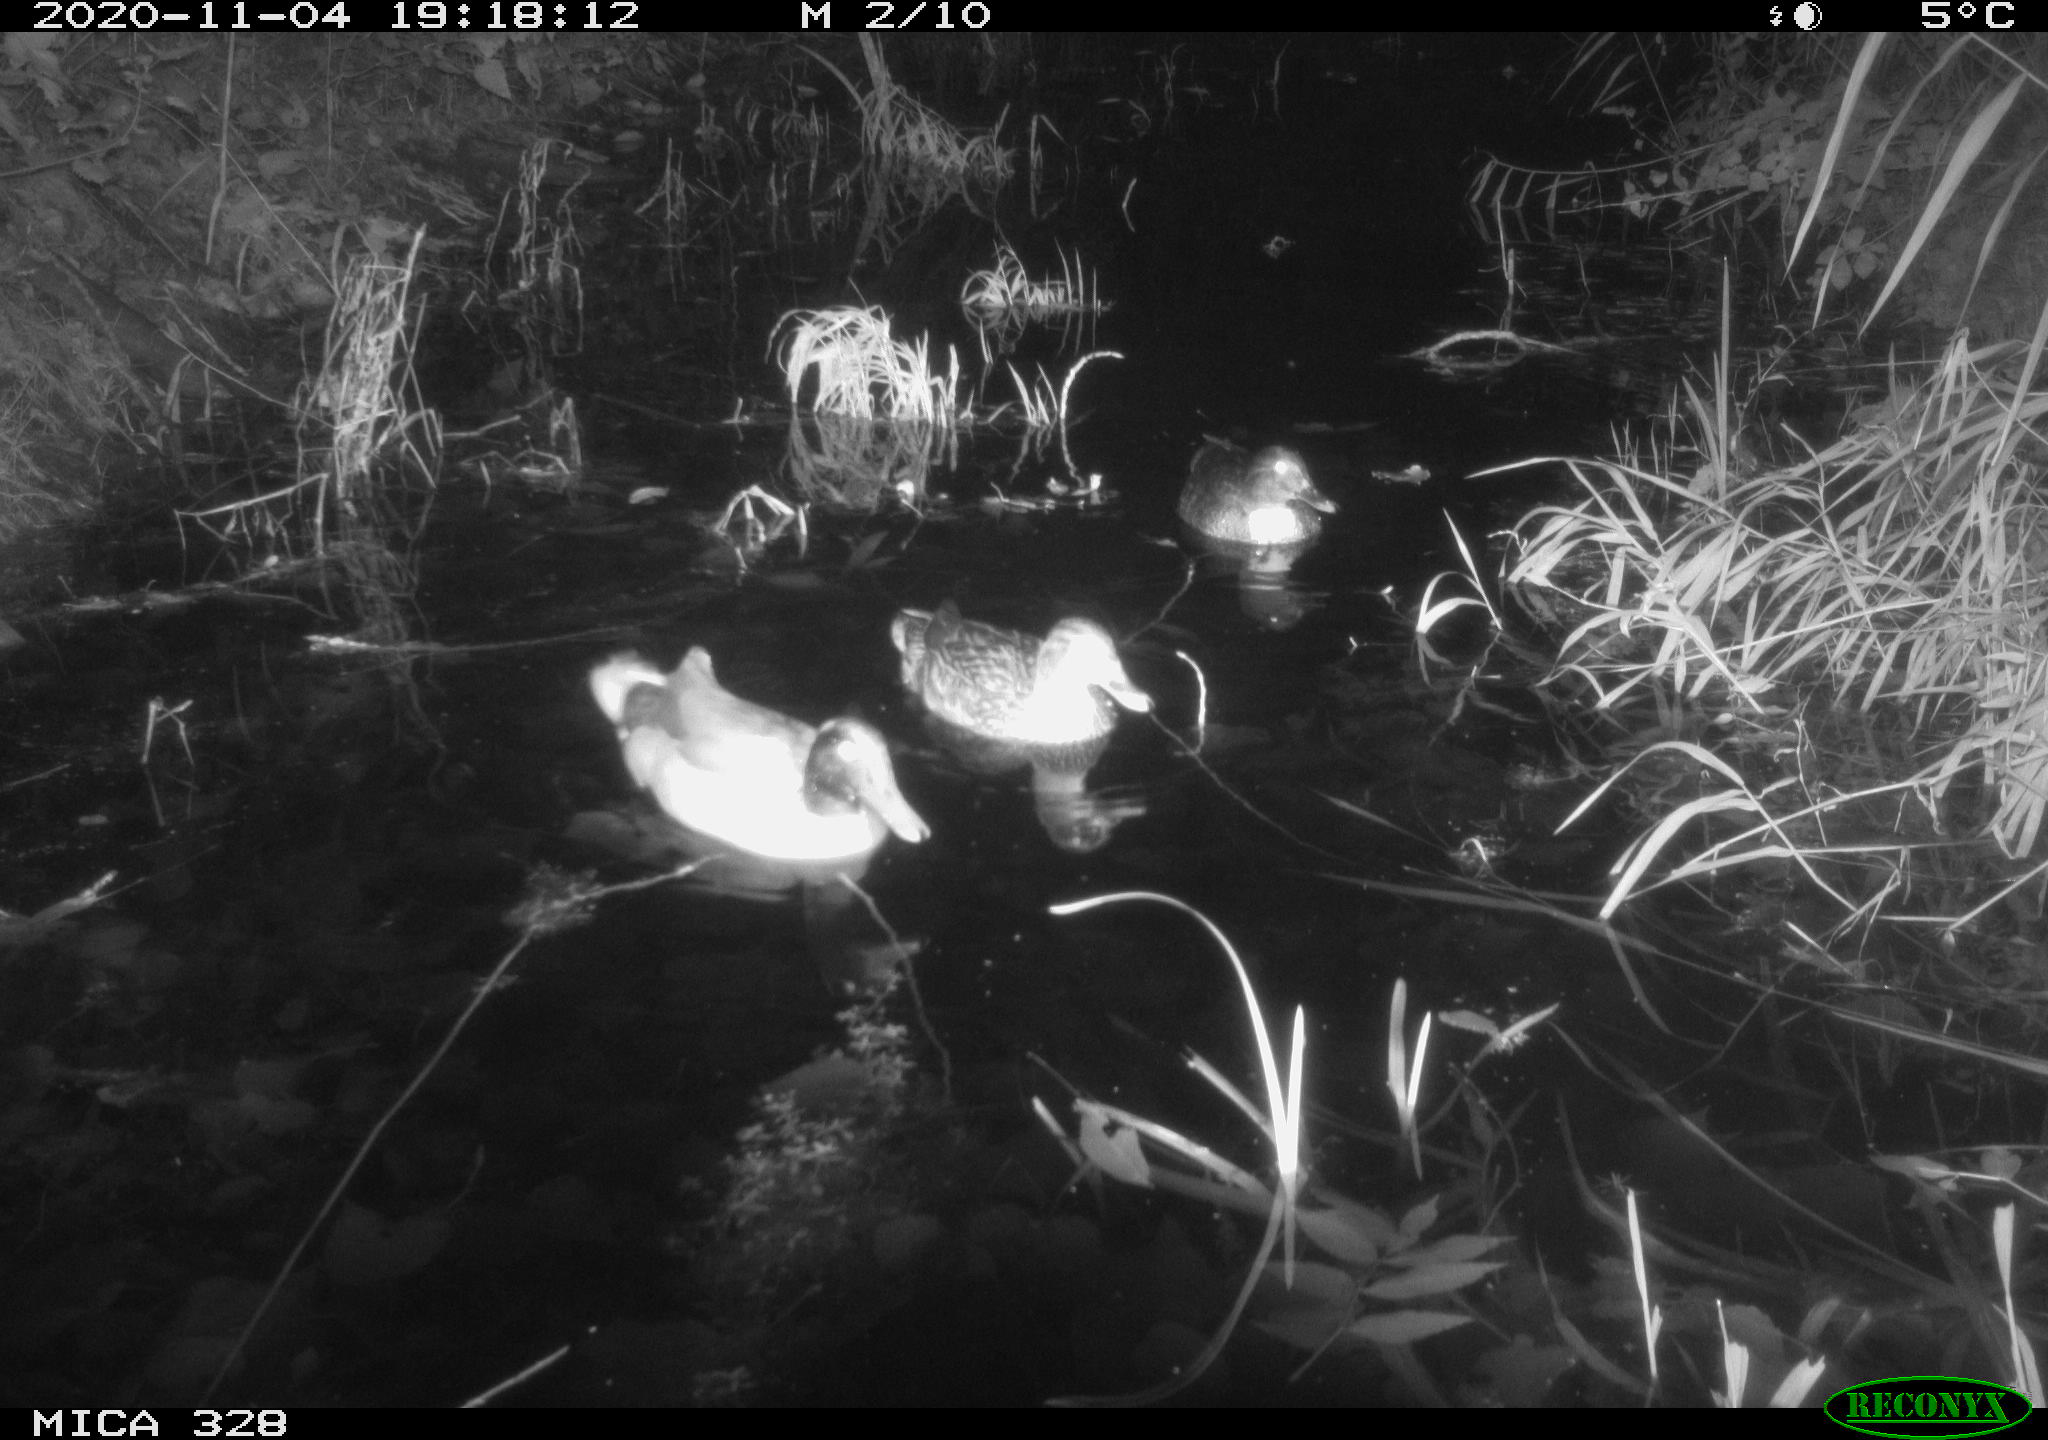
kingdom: Animalia
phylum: Chordata
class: Aves
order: Anseriformes
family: Anatidae
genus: Anas
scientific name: Anas platyrhynchos
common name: Mallard
